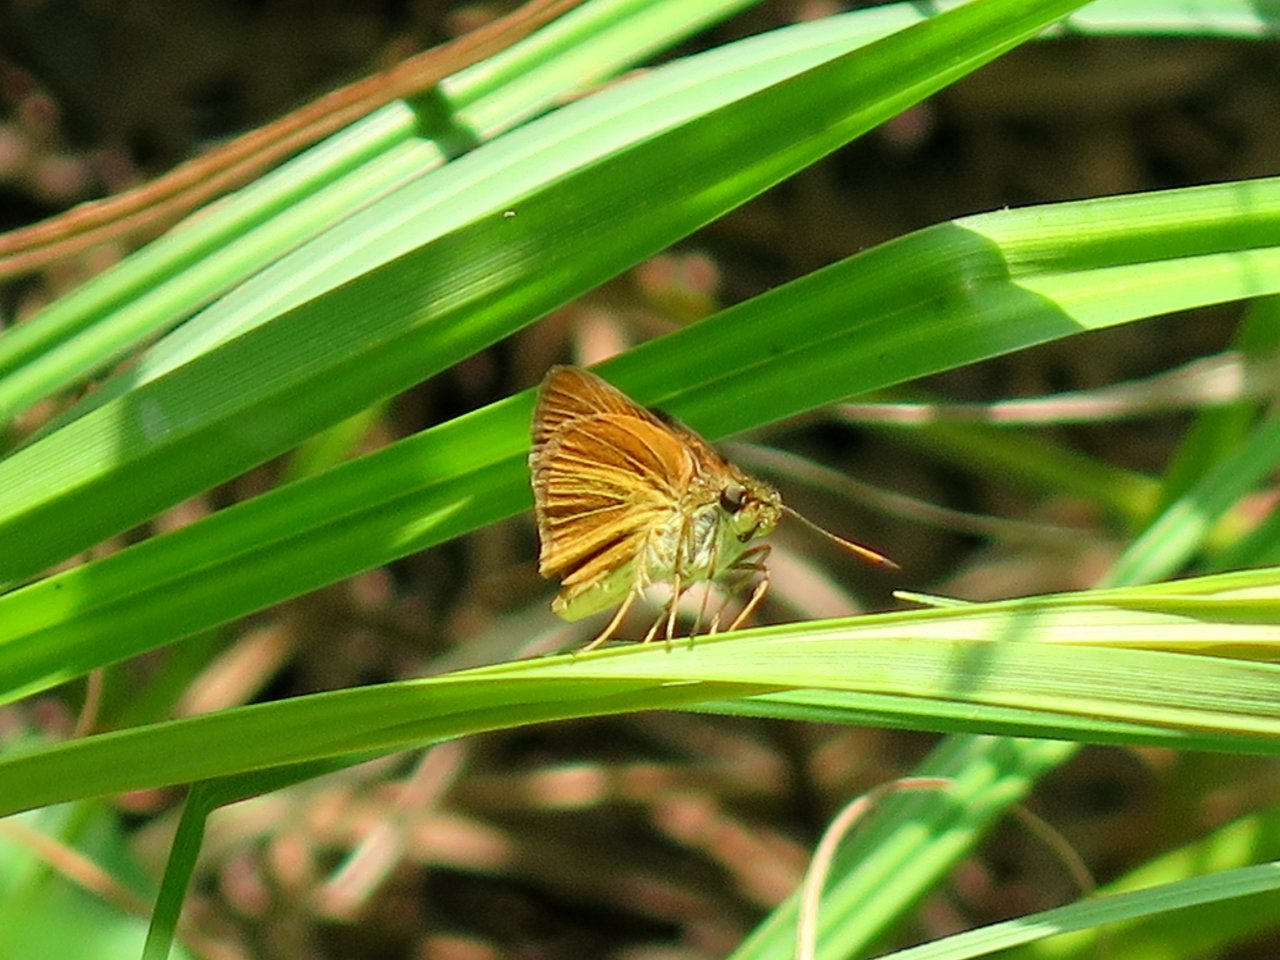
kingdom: Animalia
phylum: Arthropoda
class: Insecta
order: Lepidoptera
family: Hesperiidae
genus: Euphyes
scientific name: Euphyes dukesi
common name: Dukes' Skipper
